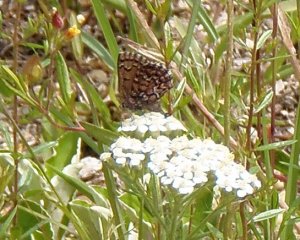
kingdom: Animalia
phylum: Arthropoda
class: Insecta
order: Lepidoptera
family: Lycaenidae
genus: Incisalia
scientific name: Incisalia niphon
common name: Eastern Pine Elfin
